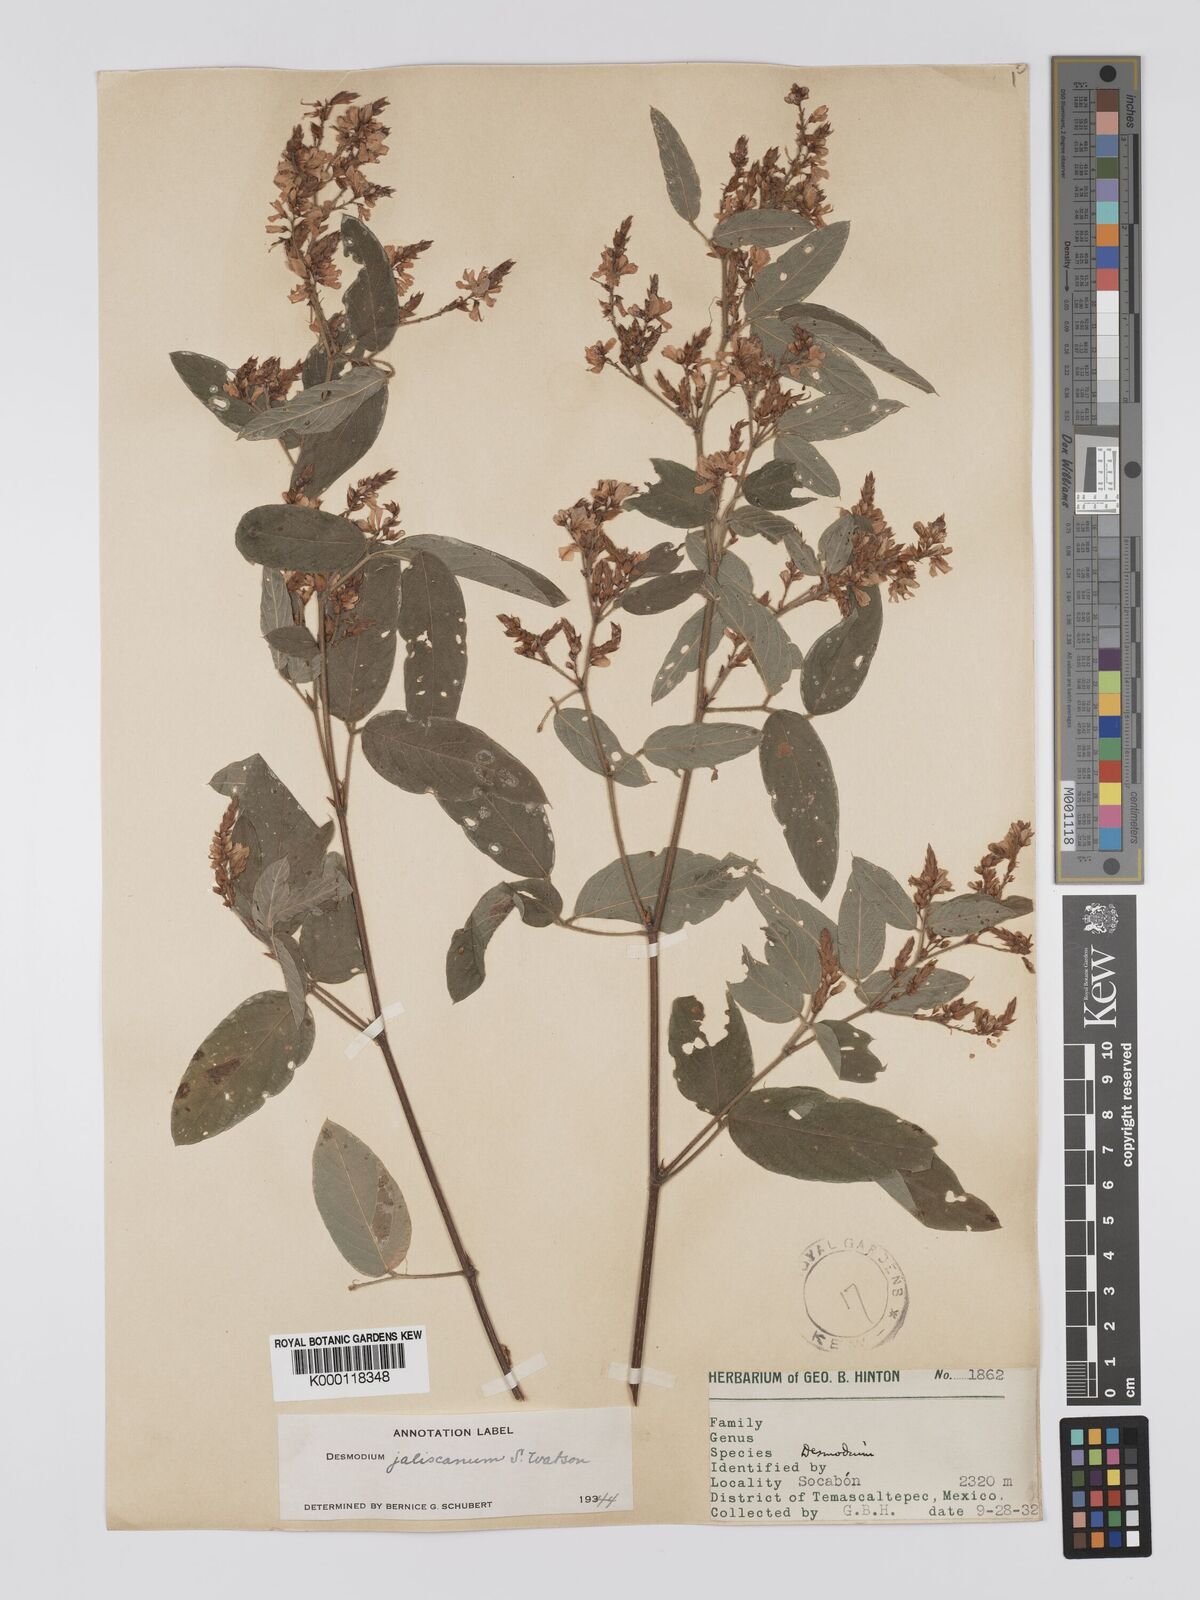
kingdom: Plantae
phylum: Tracheophyta
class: Magnoliopsida
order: Fabales
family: Fabaceae
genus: Desmodium
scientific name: Desmodium jaliscanum
